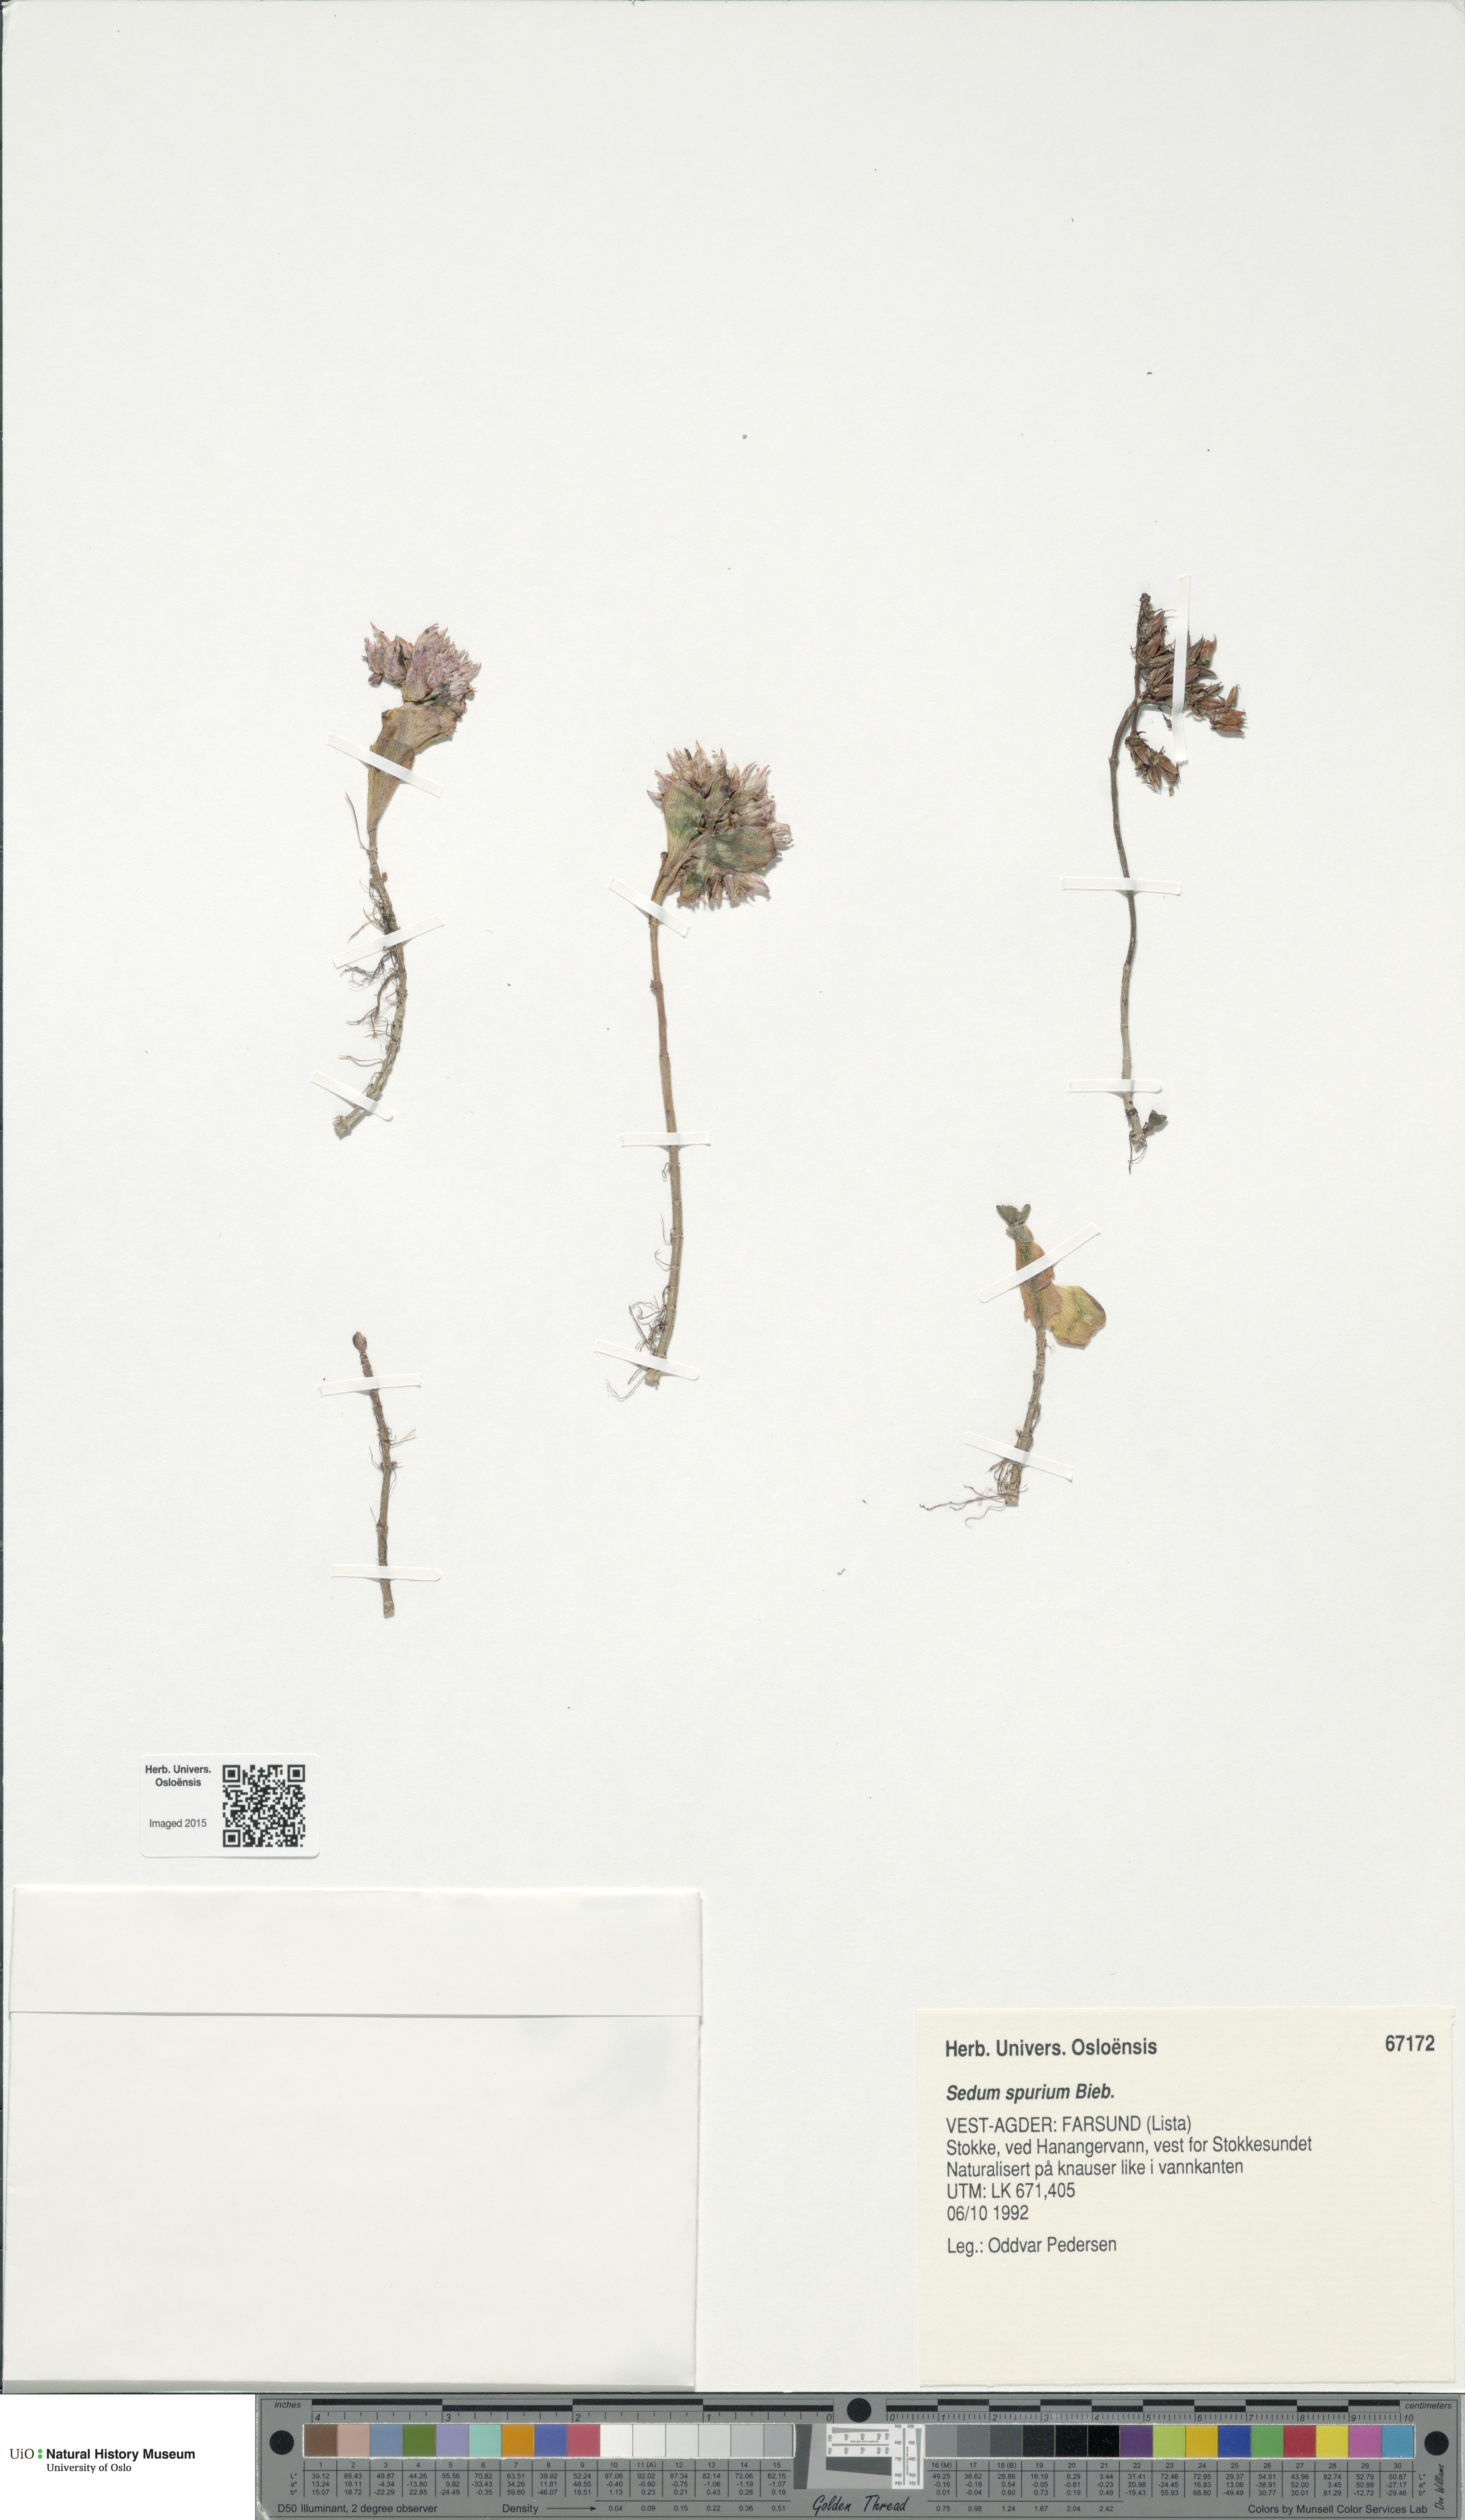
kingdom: Plantae
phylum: Tracheophyta
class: Magnoliopsida
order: Saxifragales
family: Crassulaceae
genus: Phedimus
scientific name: Phedimus spurius
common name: Caucasian stonecrop
